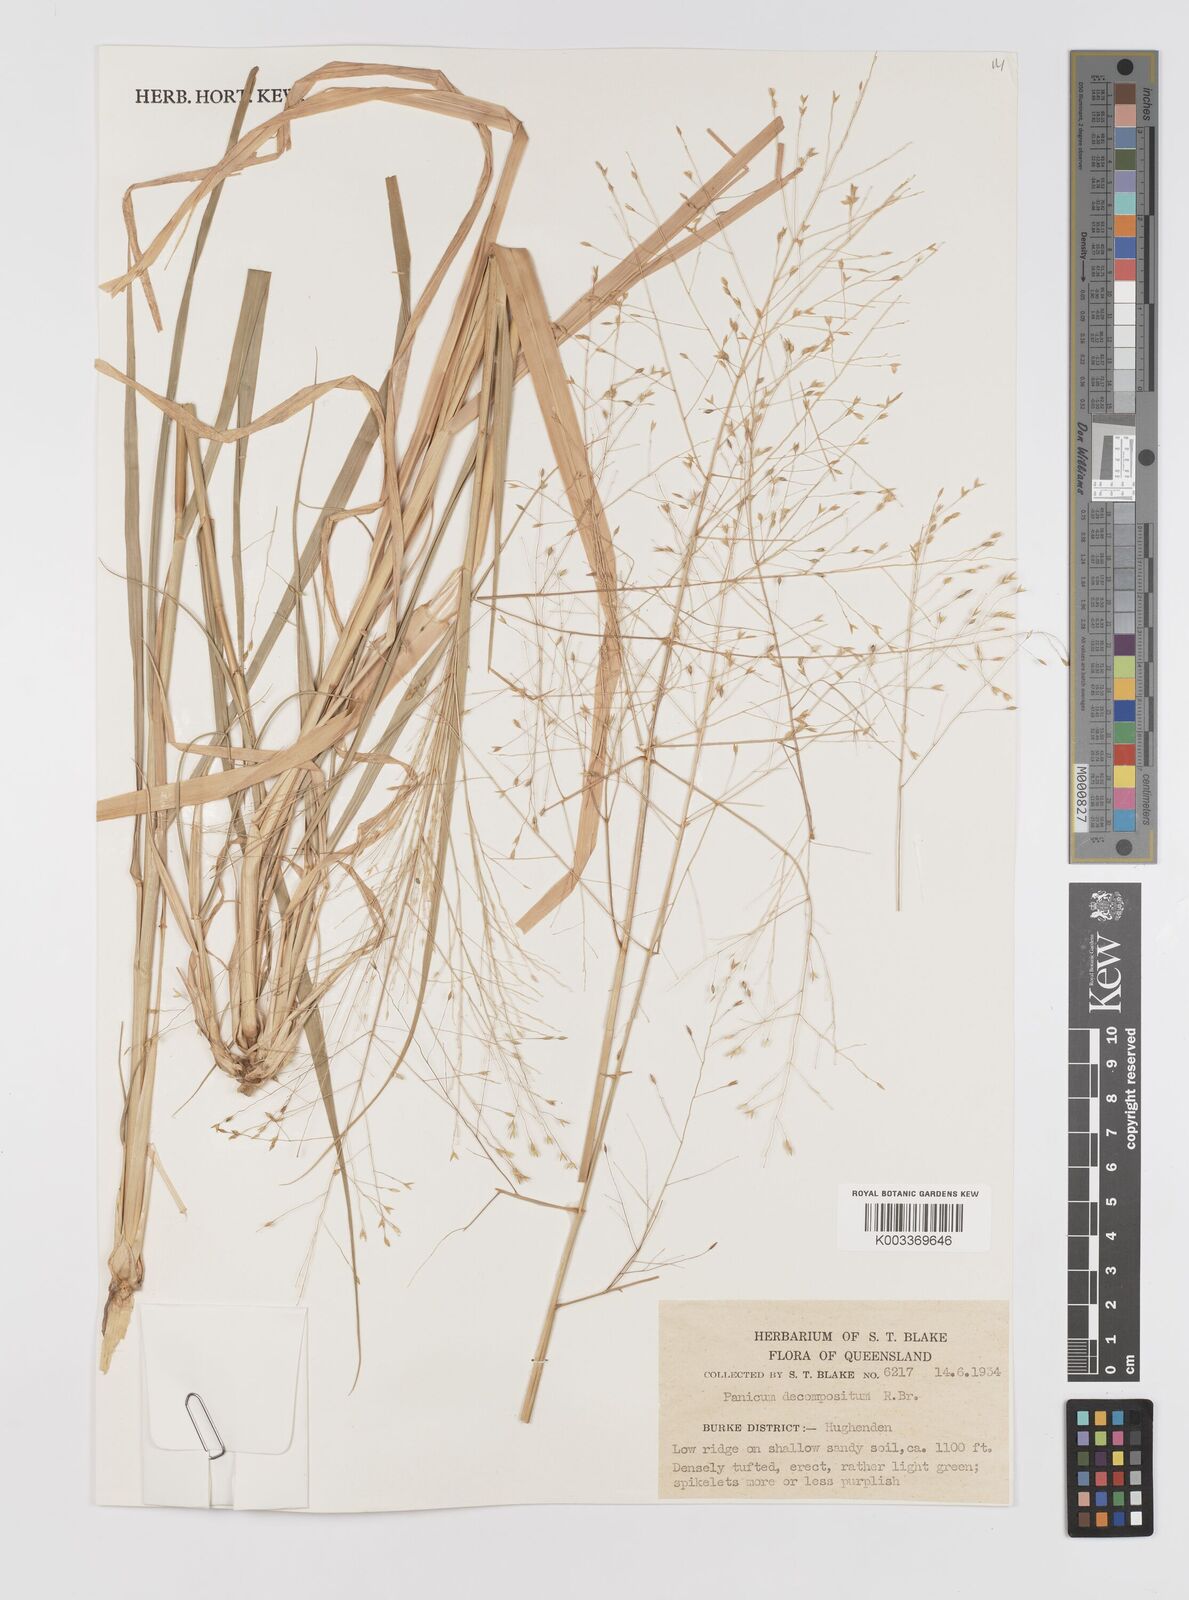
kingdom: Plantae
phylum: Tracheophyta
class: Liliopsida
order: Poales
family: Poaceae
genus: Panicum
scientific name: Panicum decompositum
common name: Australian millet
